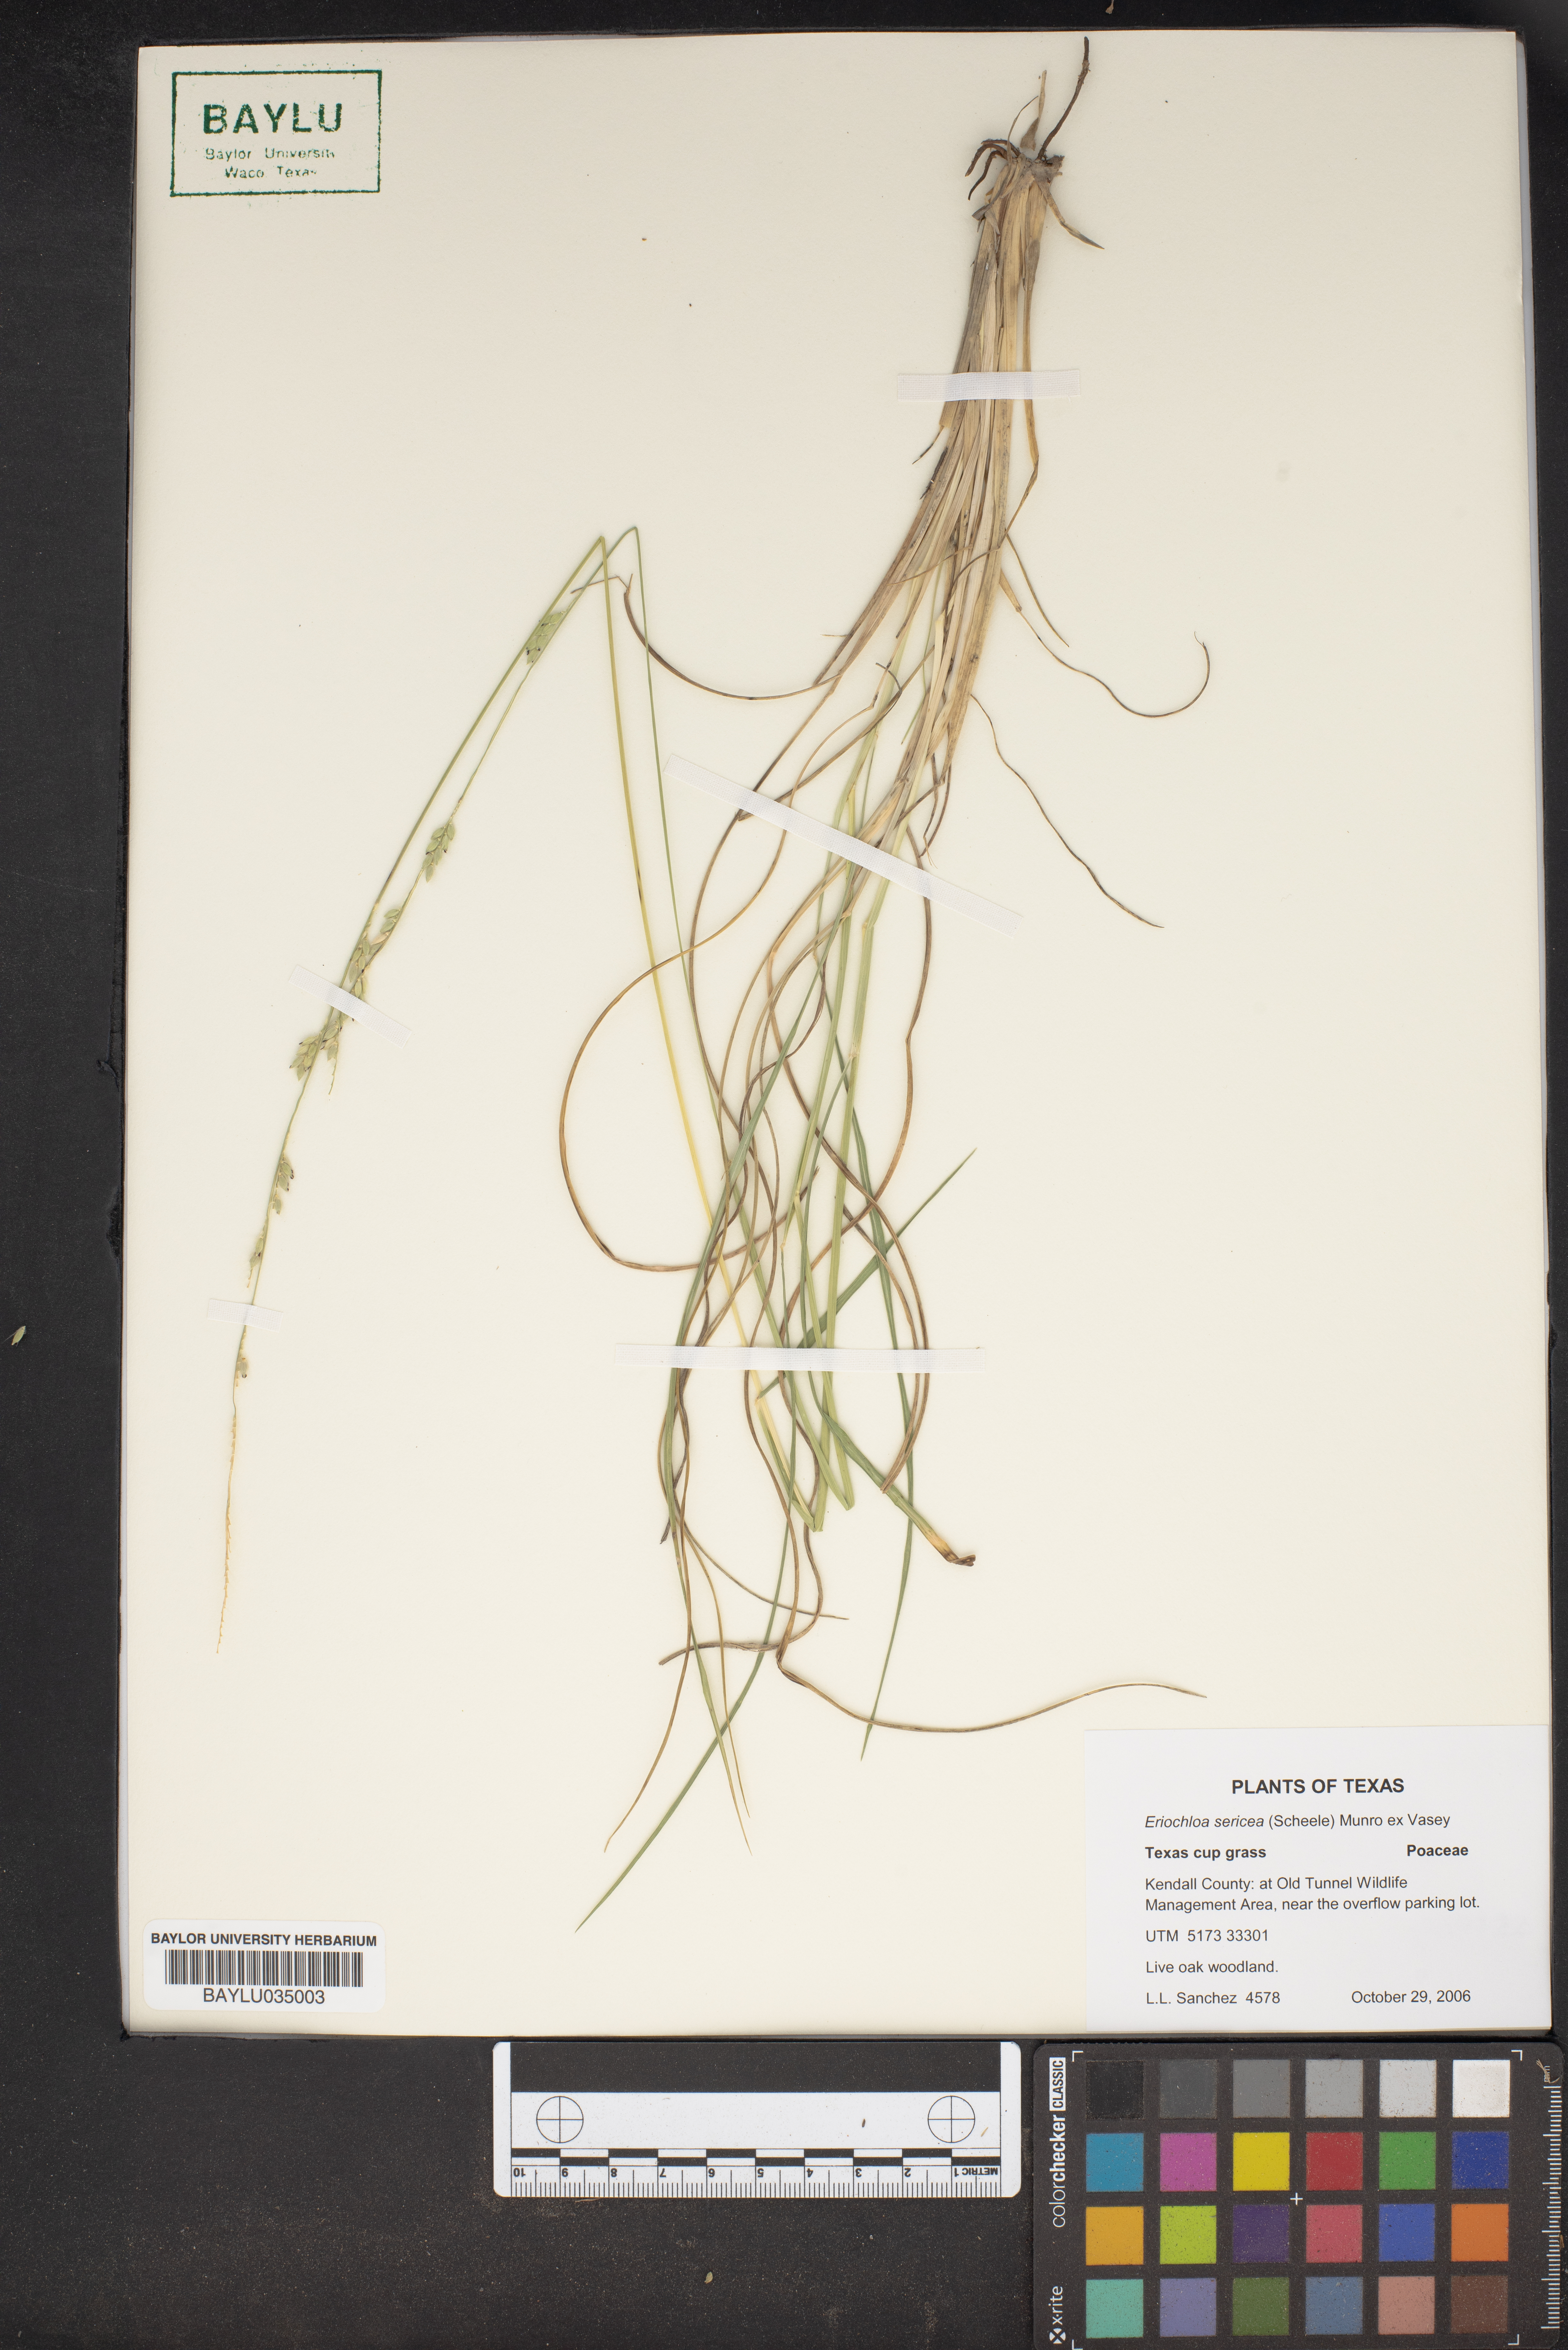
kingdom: Plantae
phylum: Tracheophyta
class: Liliopsida
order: Poales
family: Poaceae
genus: Eriochloa
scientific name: Eriochloa sericea
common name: Texas cup grass
